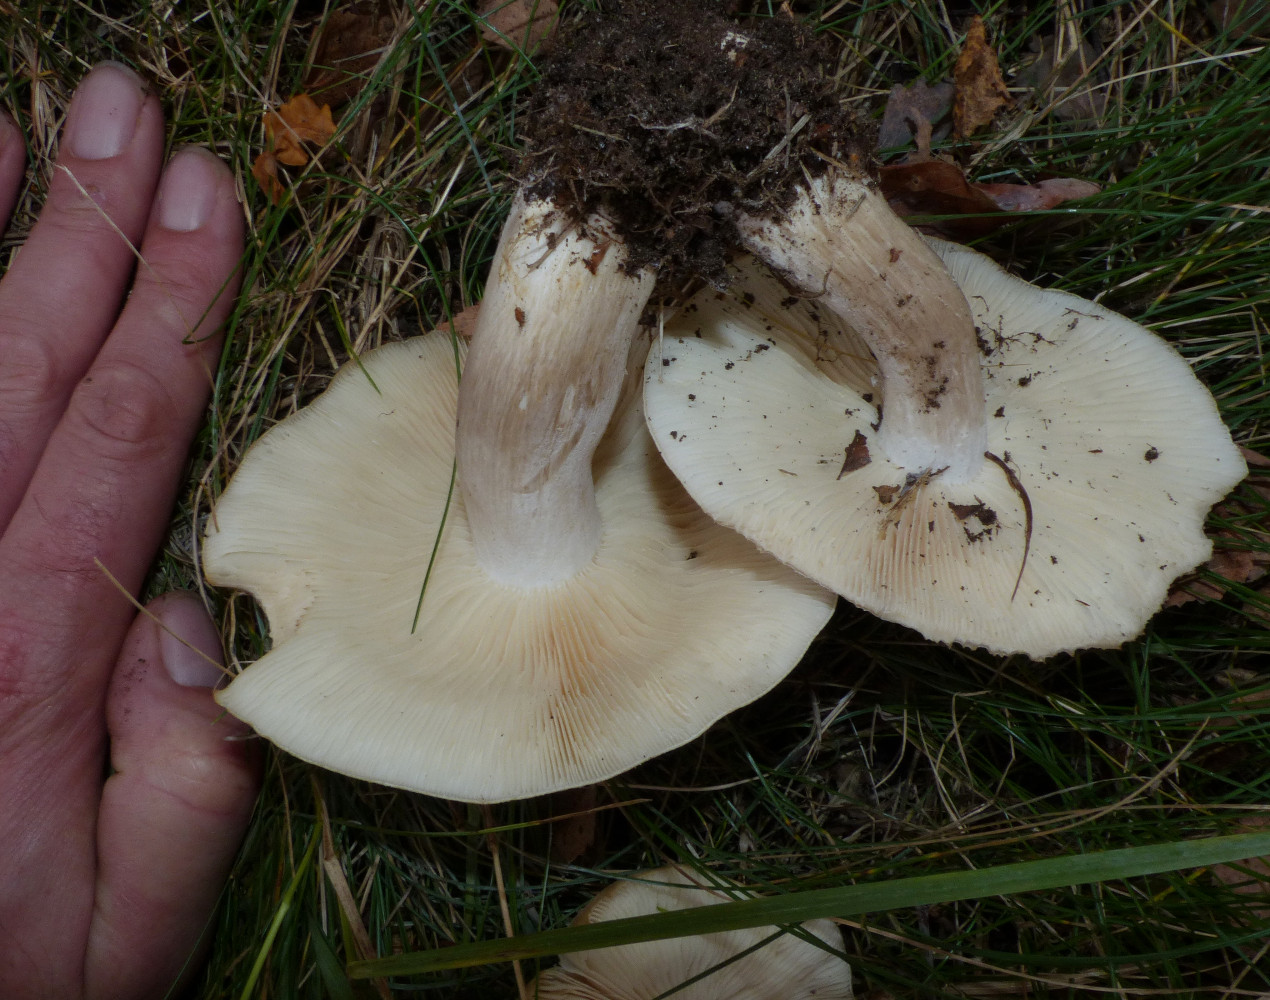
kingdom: Fungi
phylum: Basidiomycota
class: Agaricomycetes
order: Agaricales
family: Lyophyllaceae
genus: Lyophyllum
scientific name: Lyophyllum
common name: gråblad
